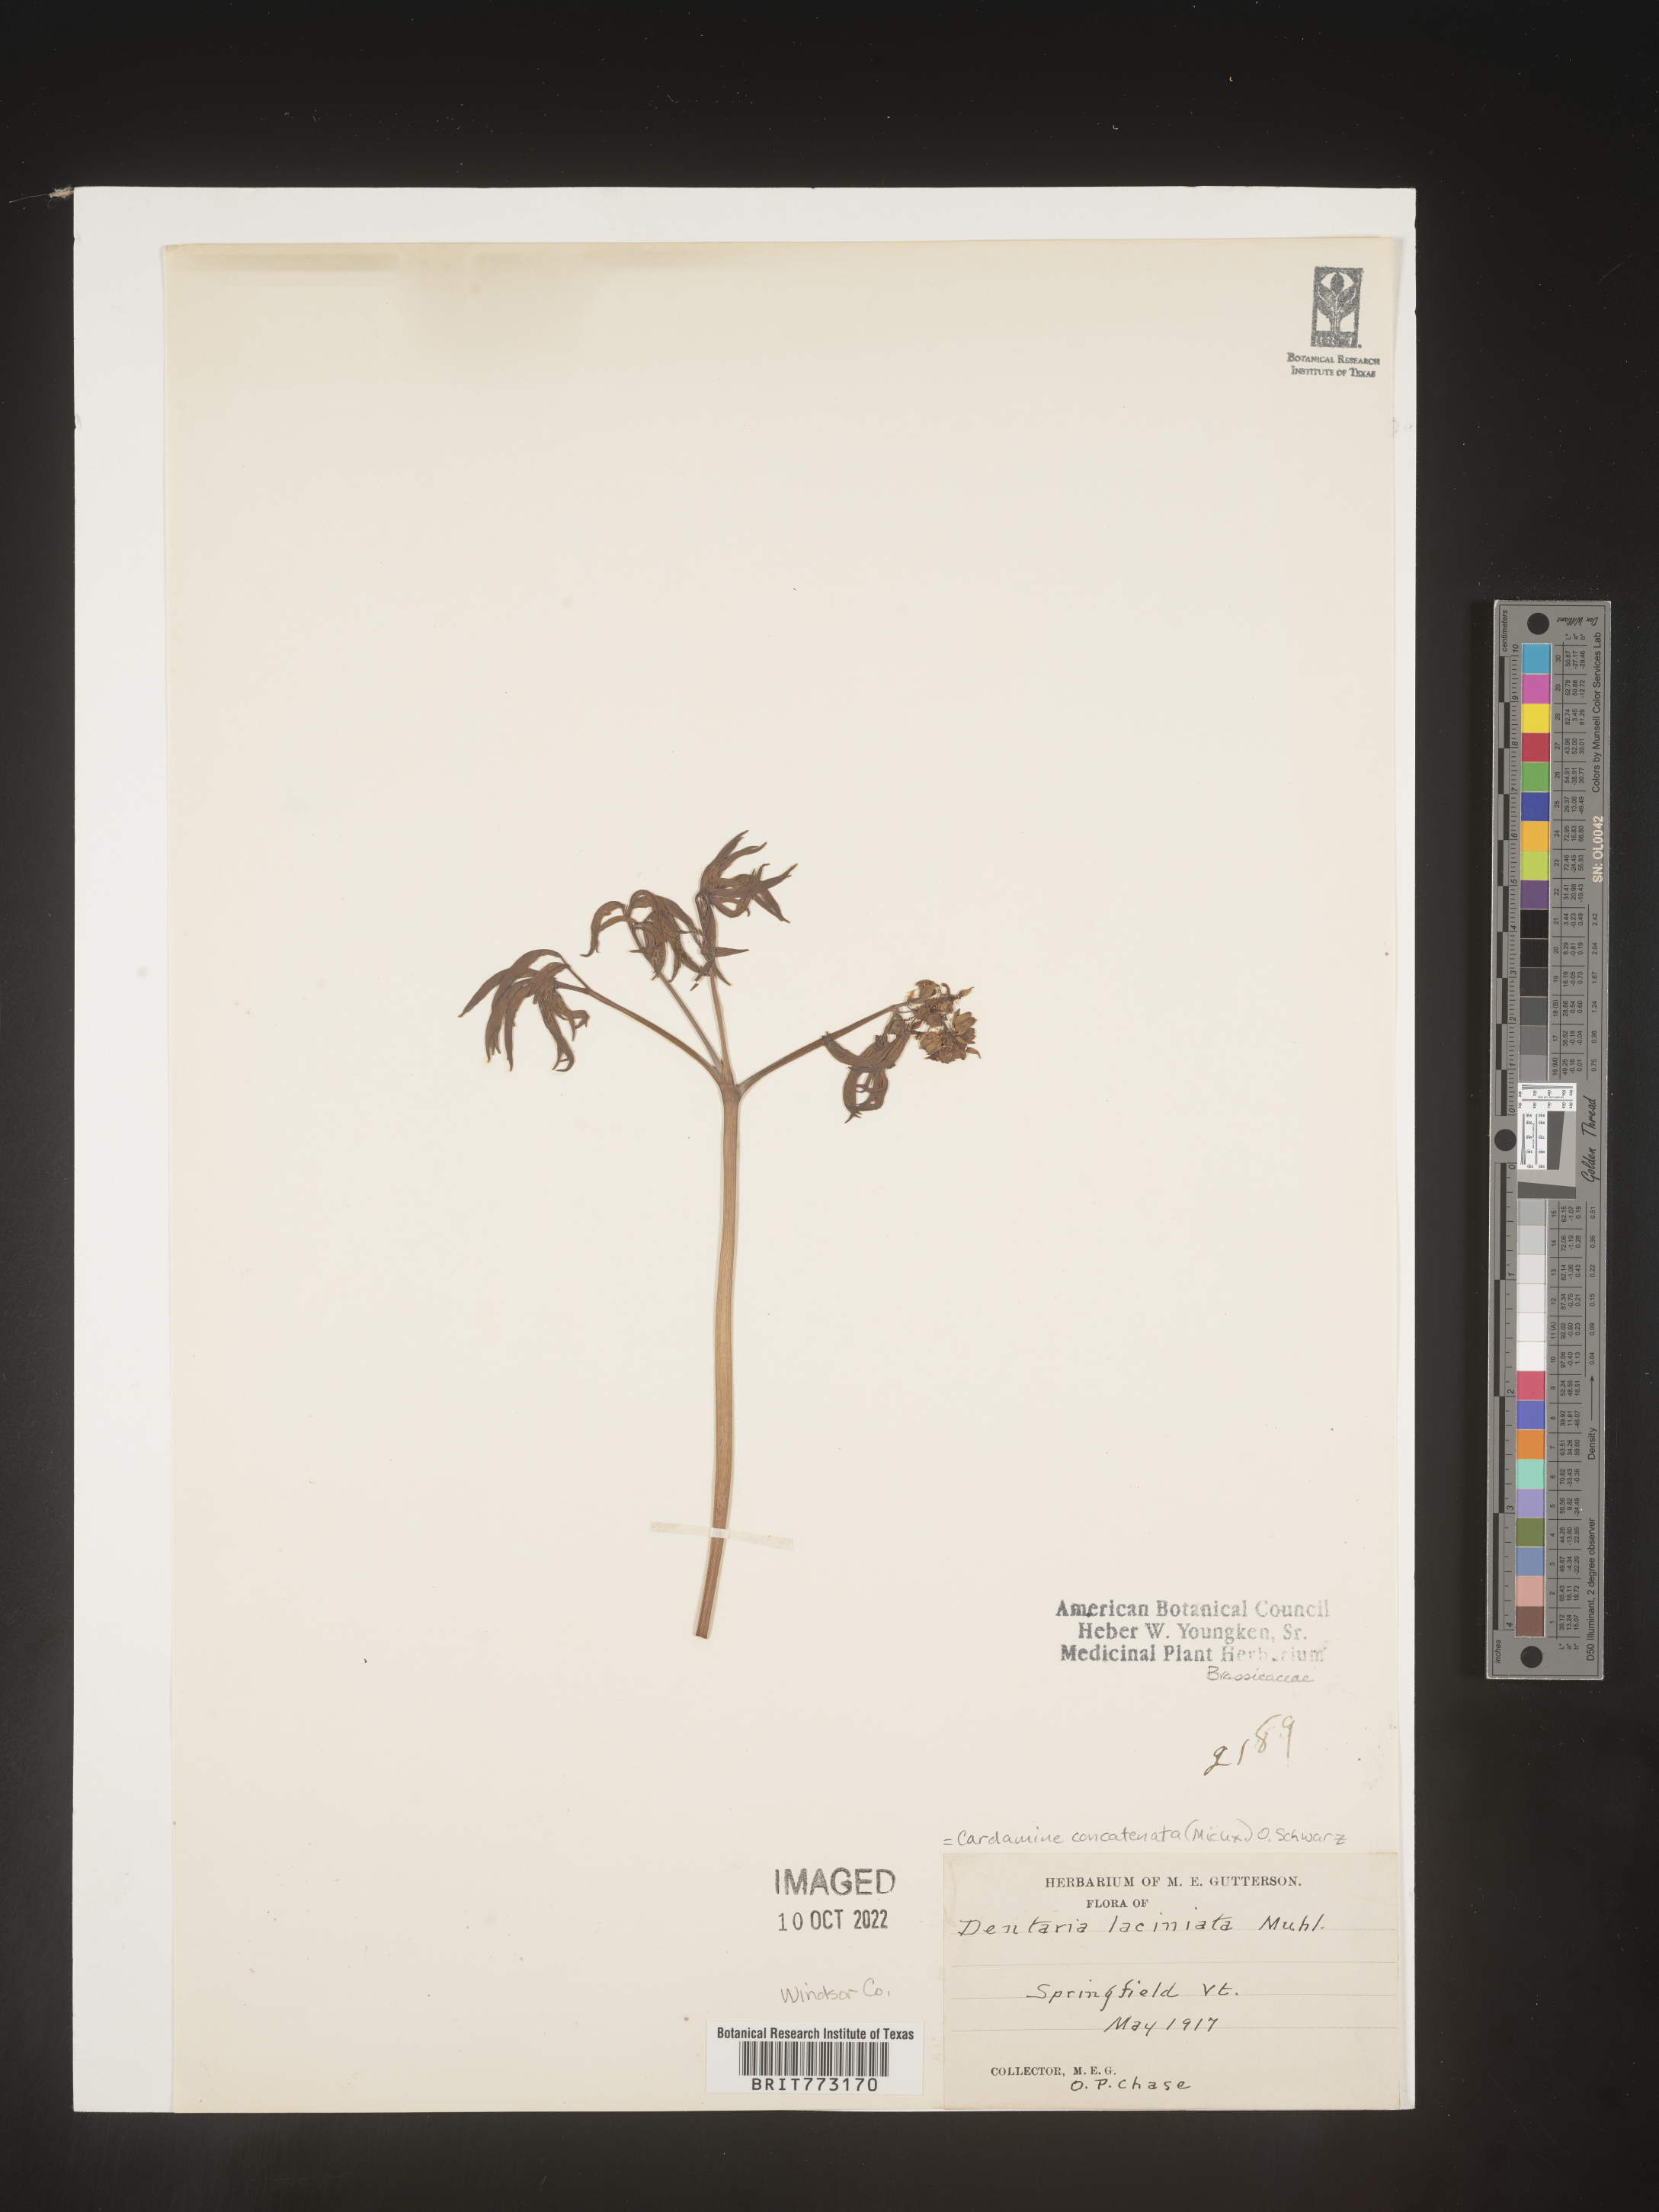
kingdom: Plantae
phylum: Tracheophyta
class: Magnoliopsida
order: Brassicales
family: Brassicaceae
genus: Cardamine
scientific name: Cardamine
